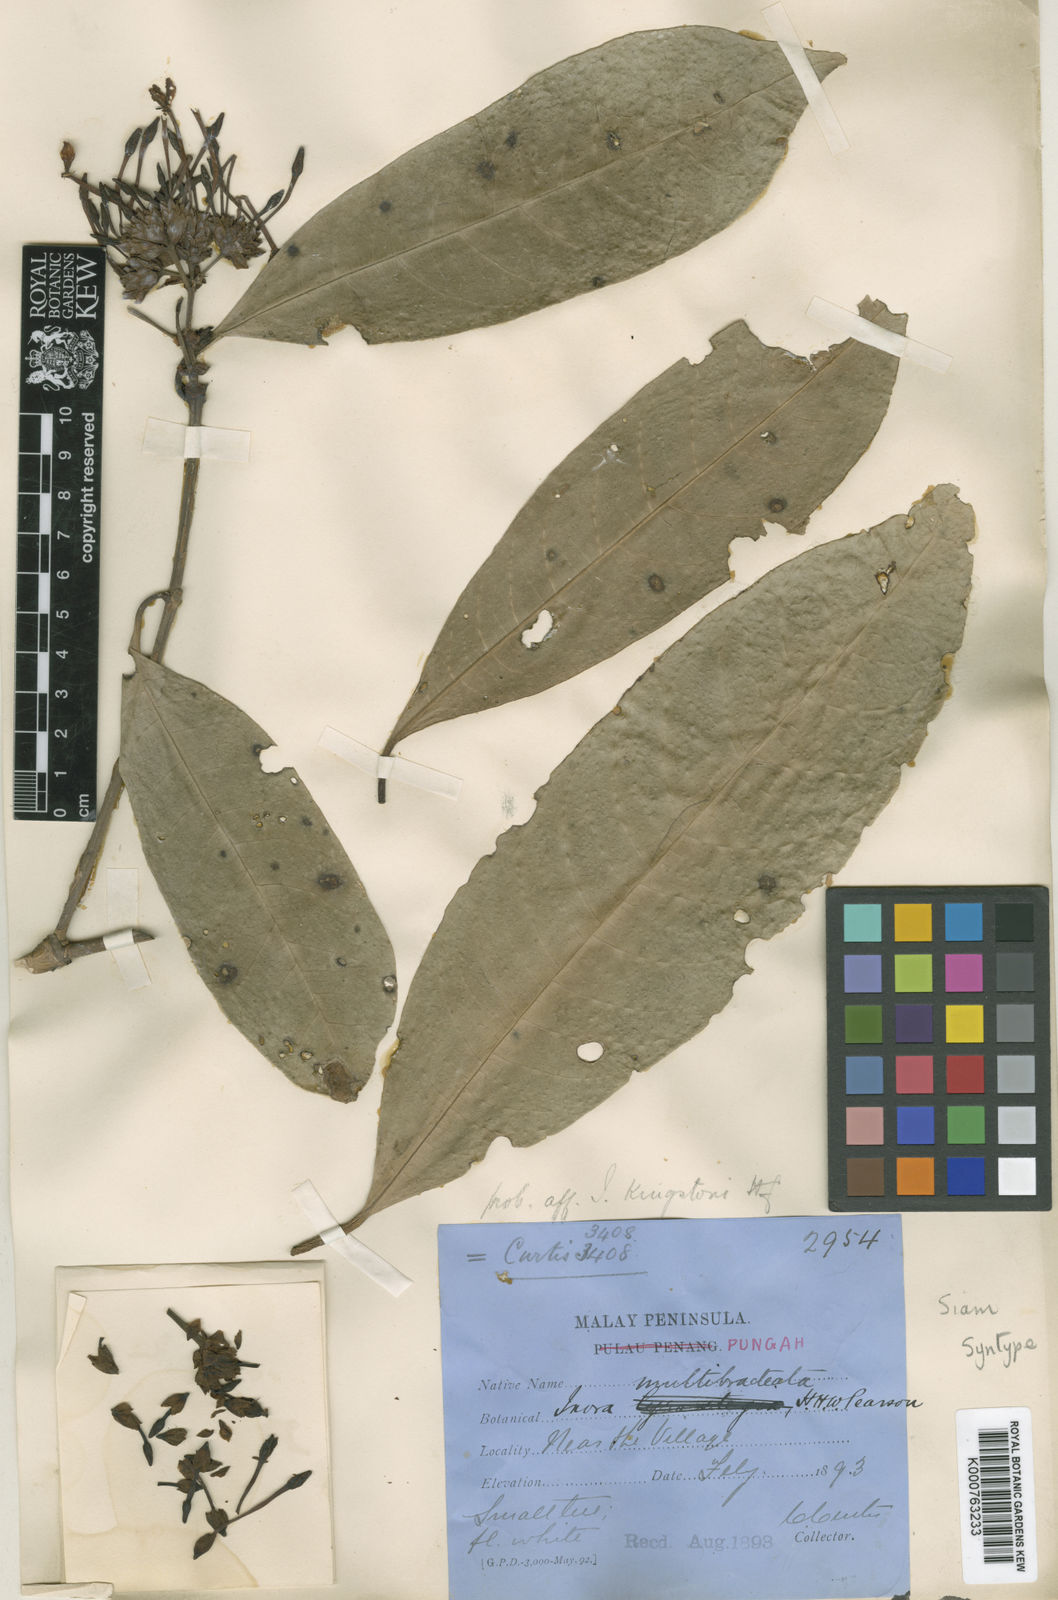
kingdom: Plantae
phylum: Tracheophyta
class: Magnoliopsida
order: Gentianales
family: Rubiaceae
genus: Ixora
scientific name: Ixora umbellata
